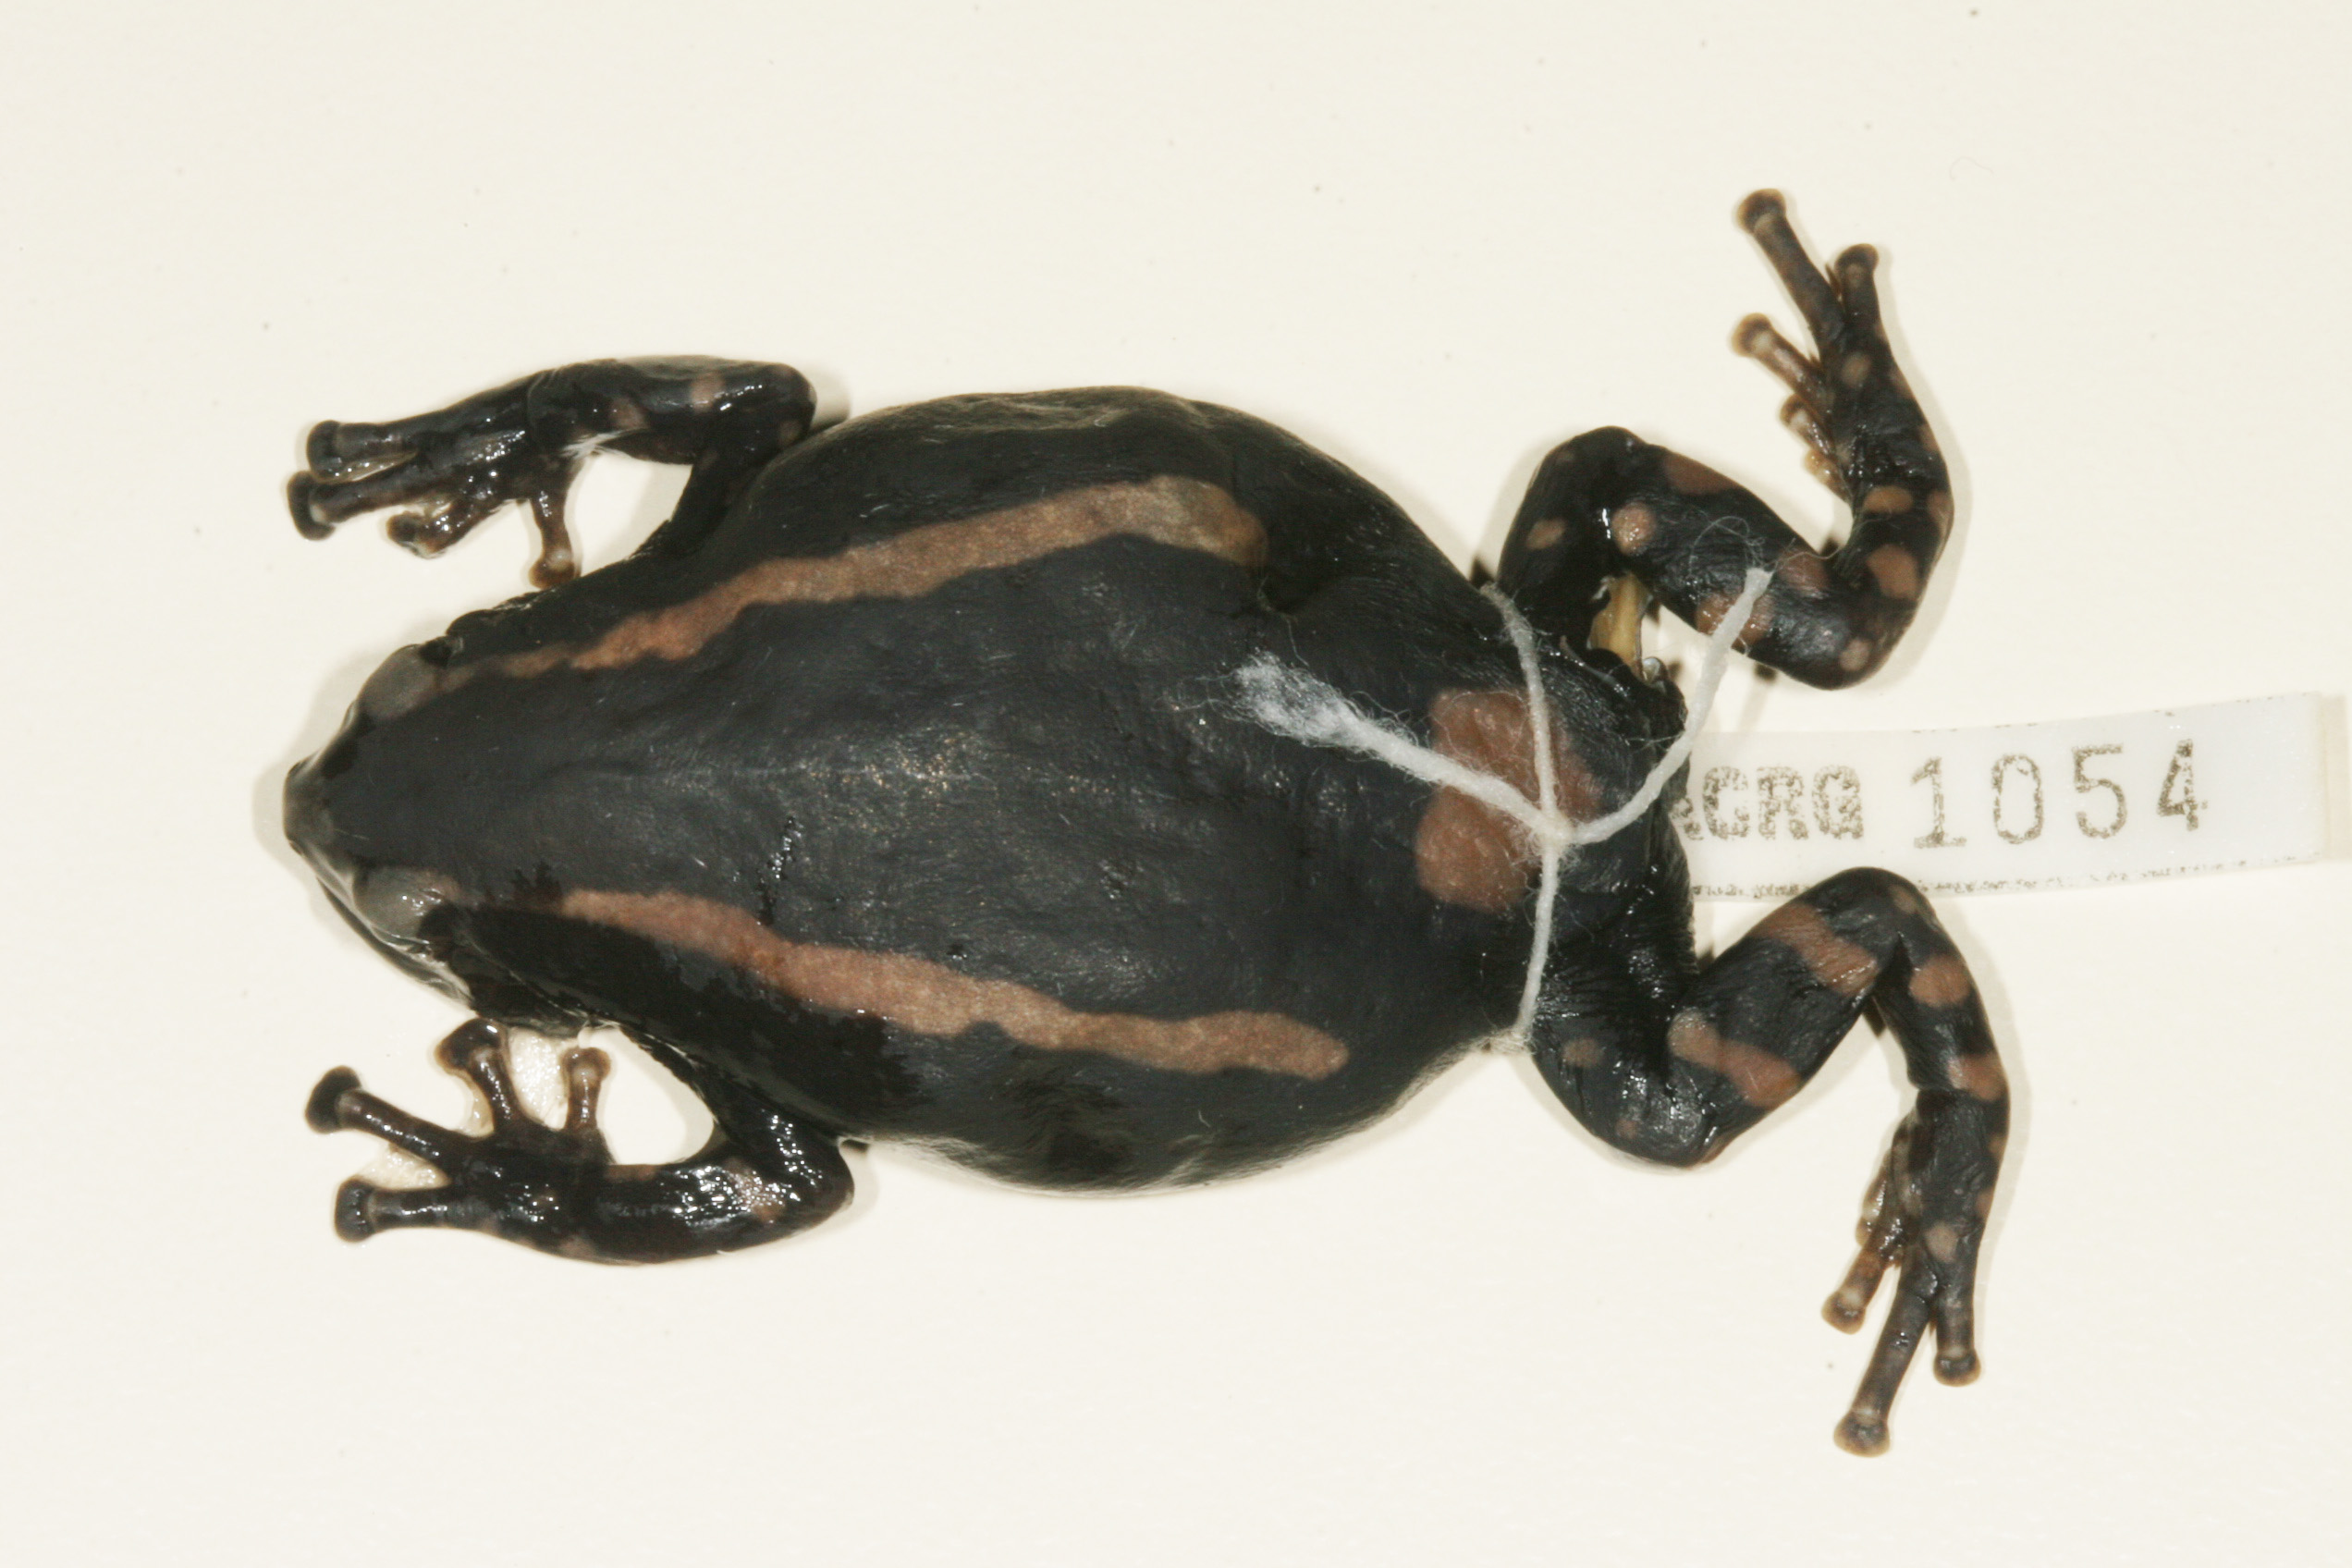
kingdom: Animalia
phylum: Chordata
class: Amphibia
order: Anura
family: Microhylidae
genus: Phrynomantis
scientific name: Phrynomantis bifasciatus
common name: Banded rubber frog
